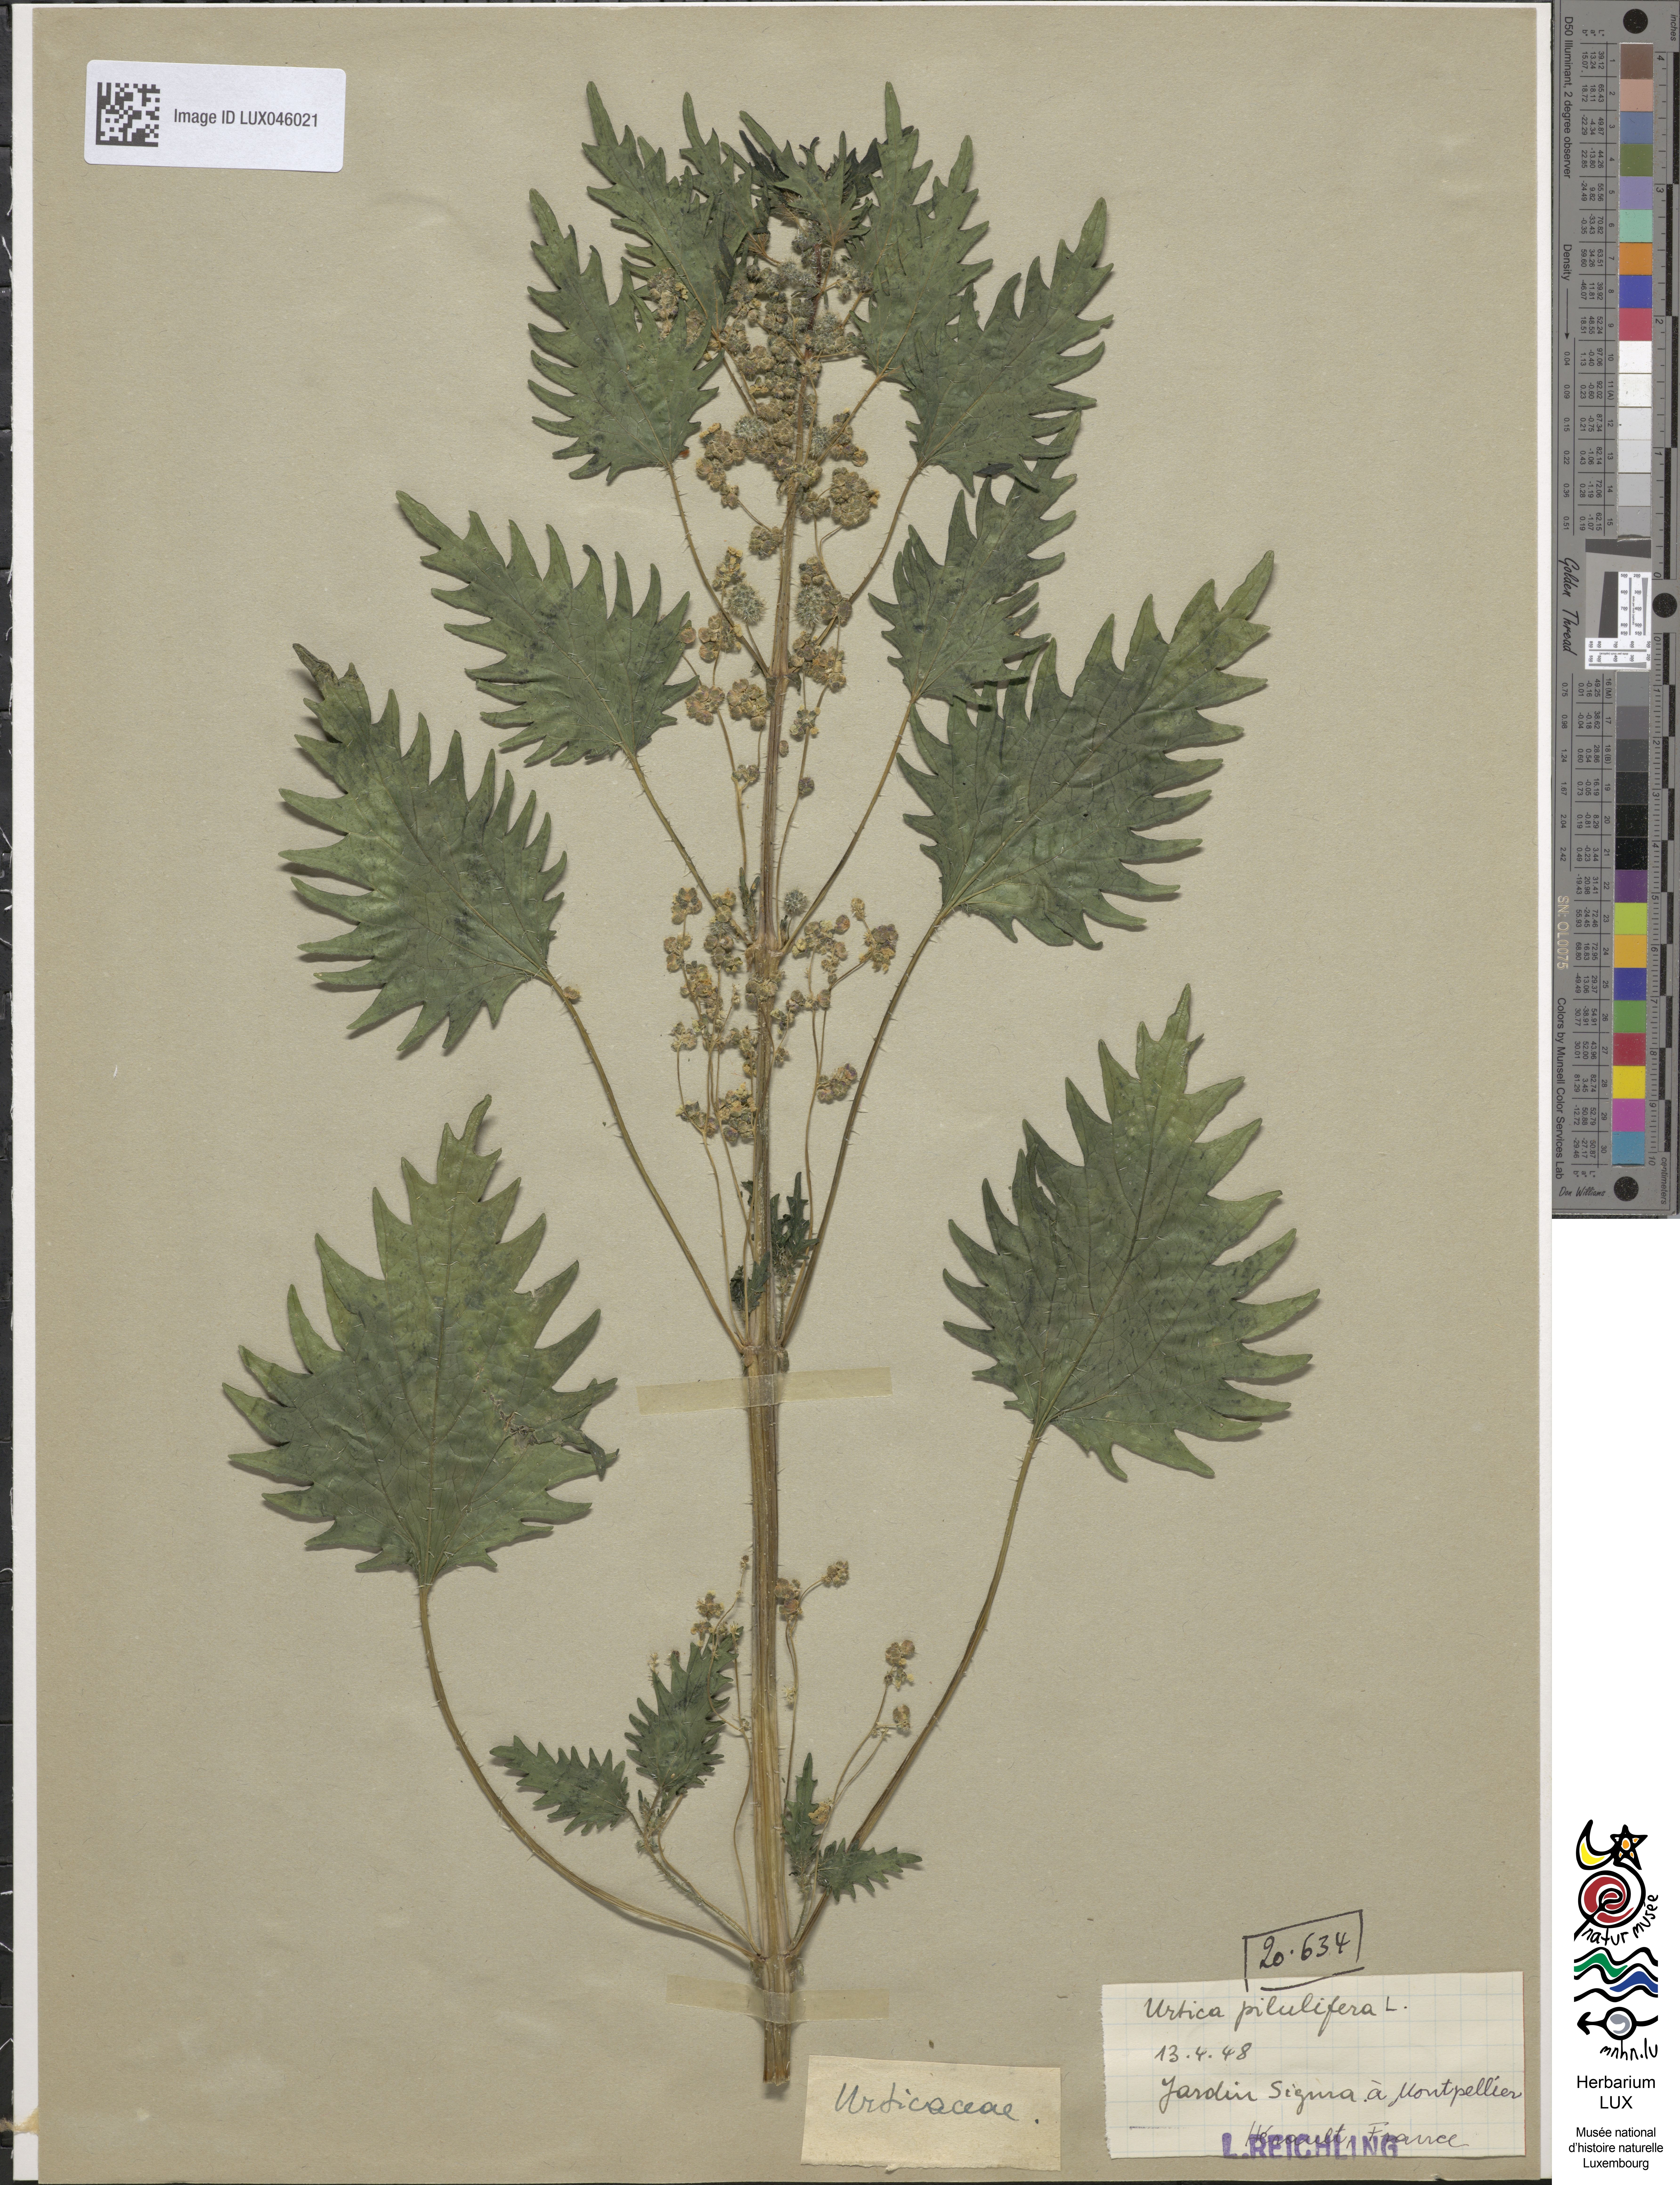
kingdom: Plantae
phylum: Tracheophyta
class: Magnoliopsida
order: Rosales
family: Urticaceae
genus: Urtica
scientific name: Urtica pilulifera
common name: Roman nettle
